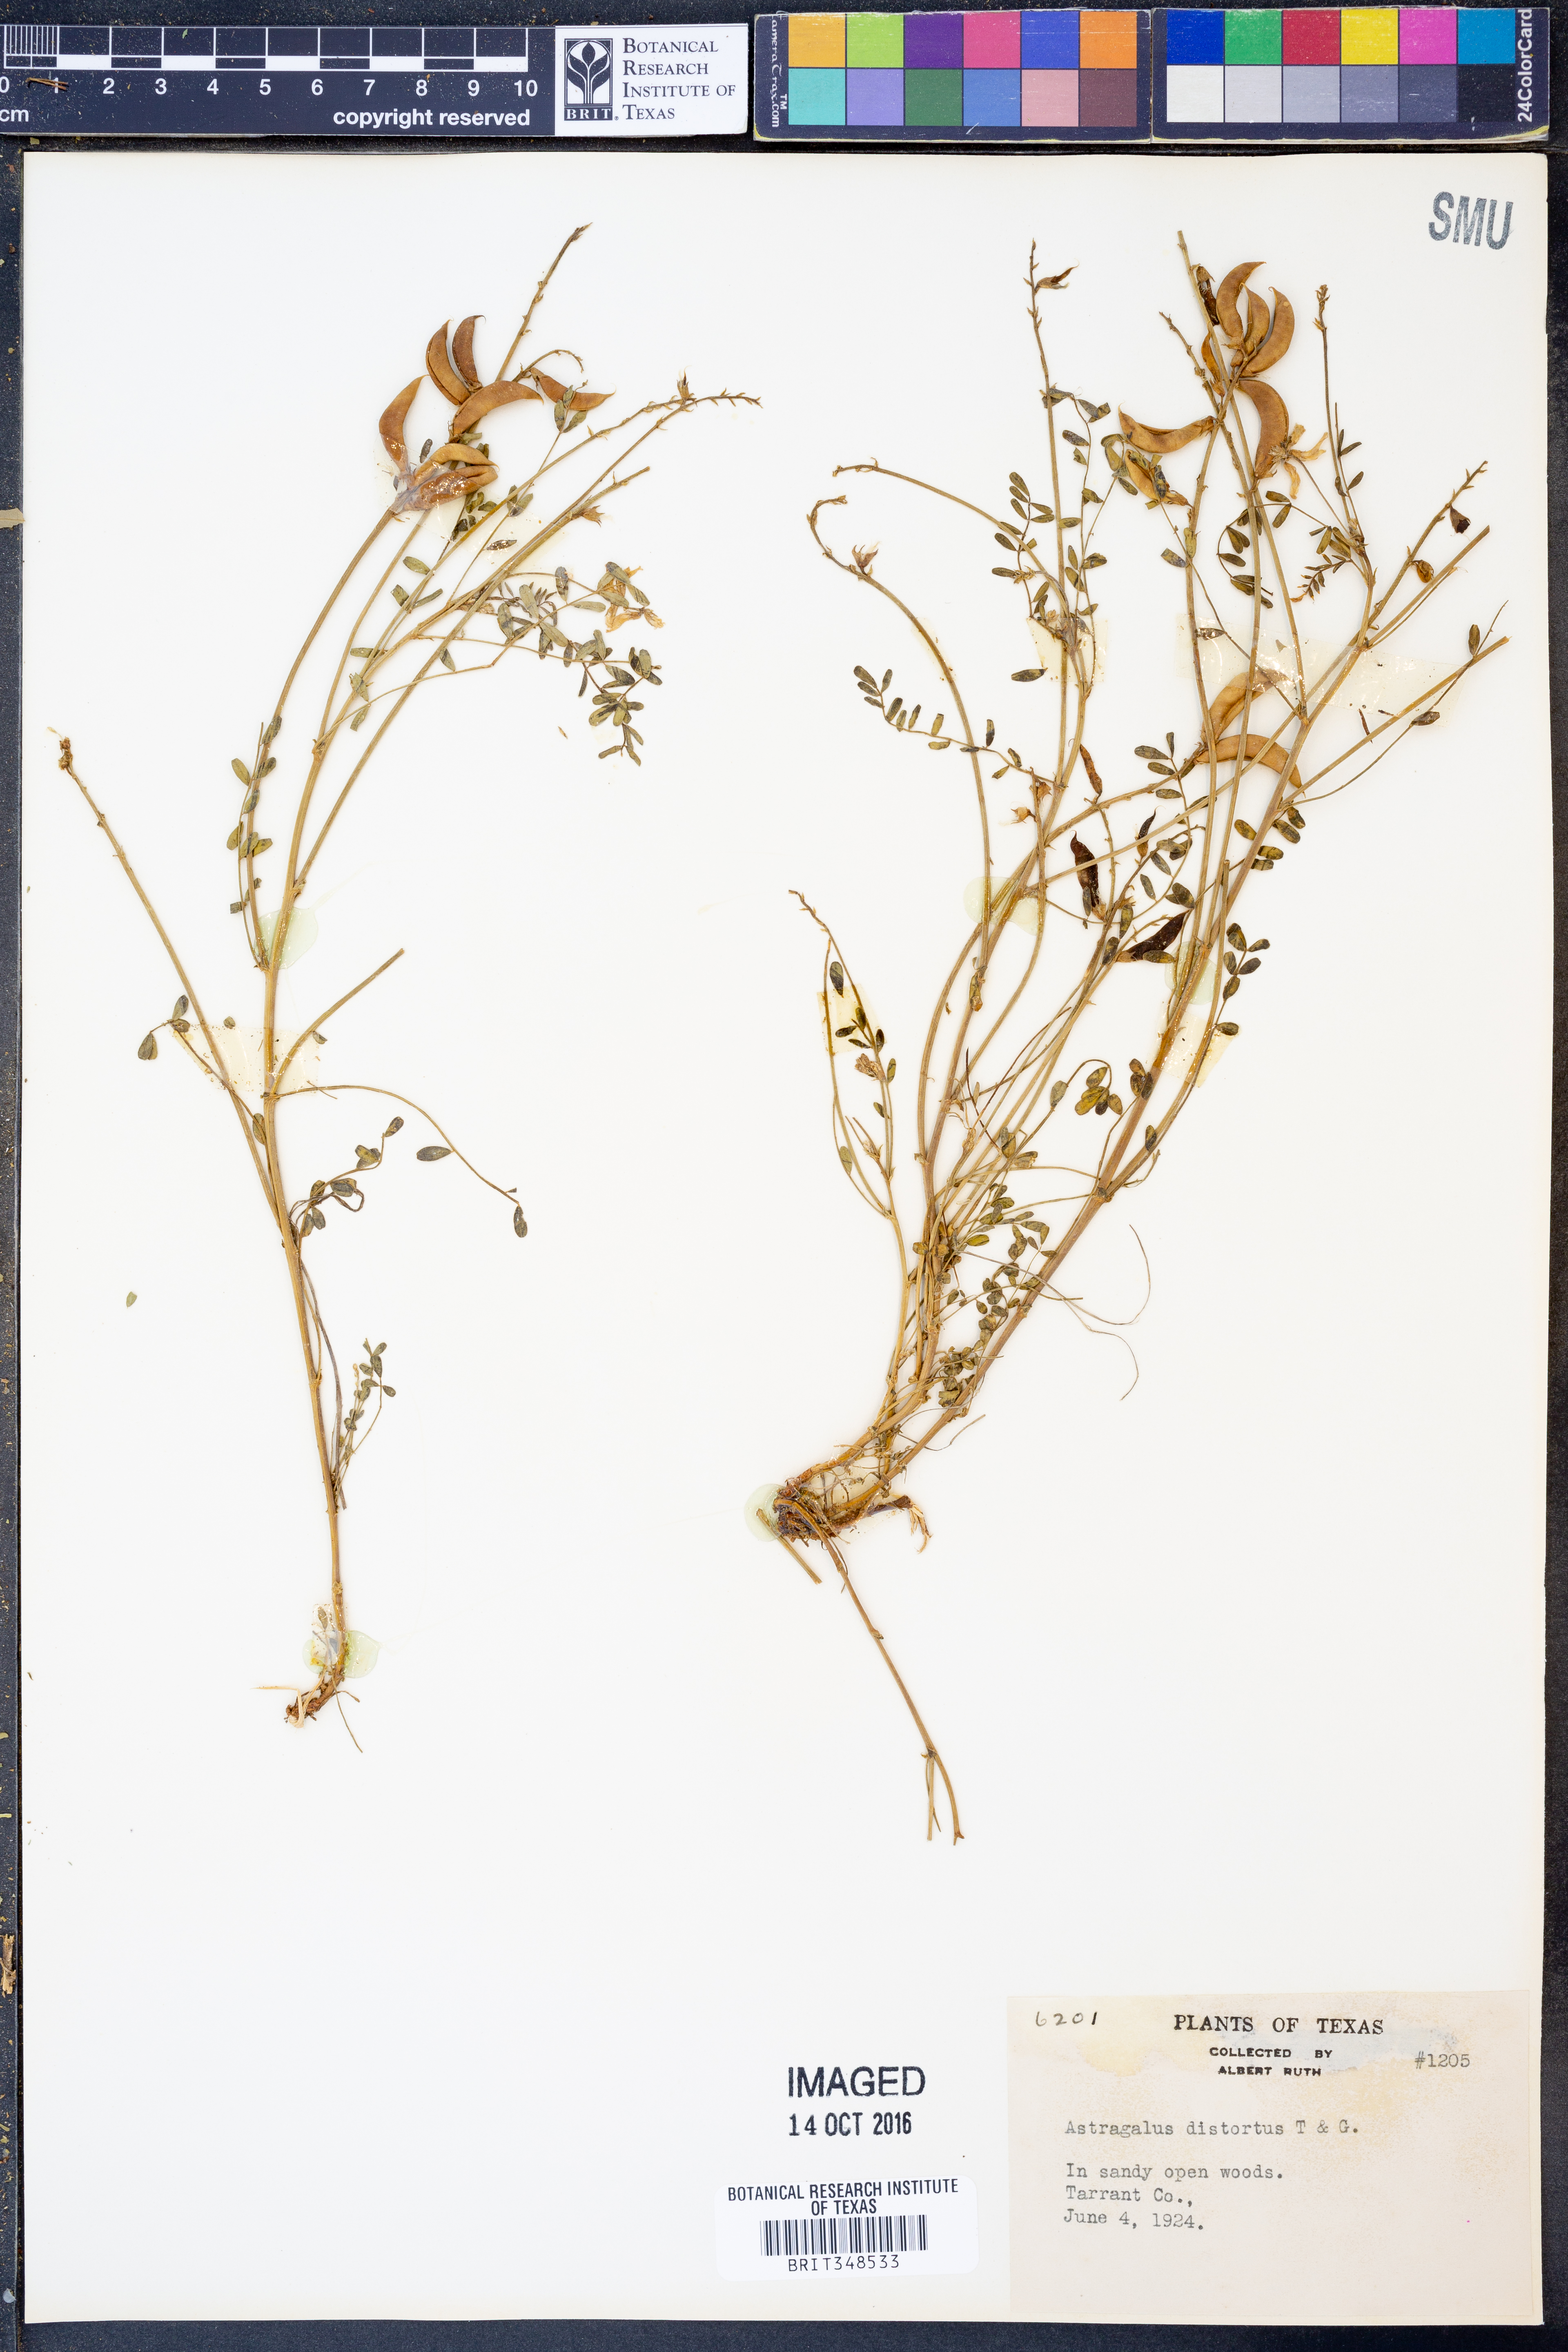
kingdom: Plantae
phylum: Tracheophyta
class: Magnoliopsida
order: Fabales
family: Fabaceae
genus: Astragalus
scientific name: Astragalus distortus
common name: Ozark milk-vetch
